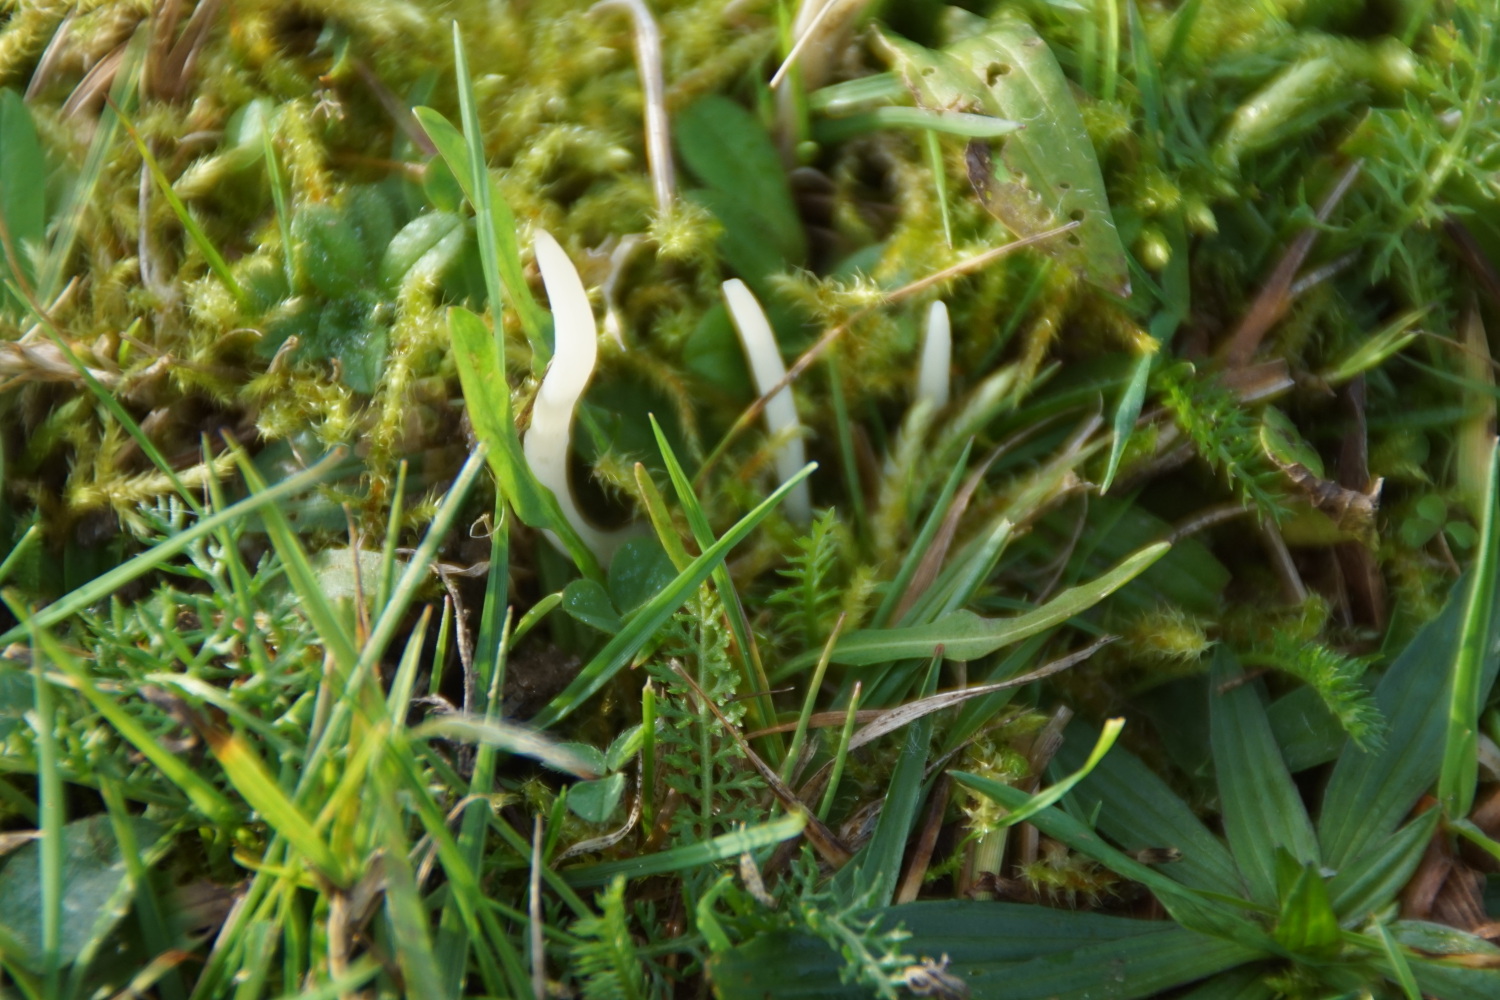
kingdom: Fungi
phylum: Basidiomycota
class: Agaricomycetes
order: Agaricales
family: Clavariaceae
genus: Clavaria
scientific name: Clavaria falcata
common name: hvid køllesvamp
